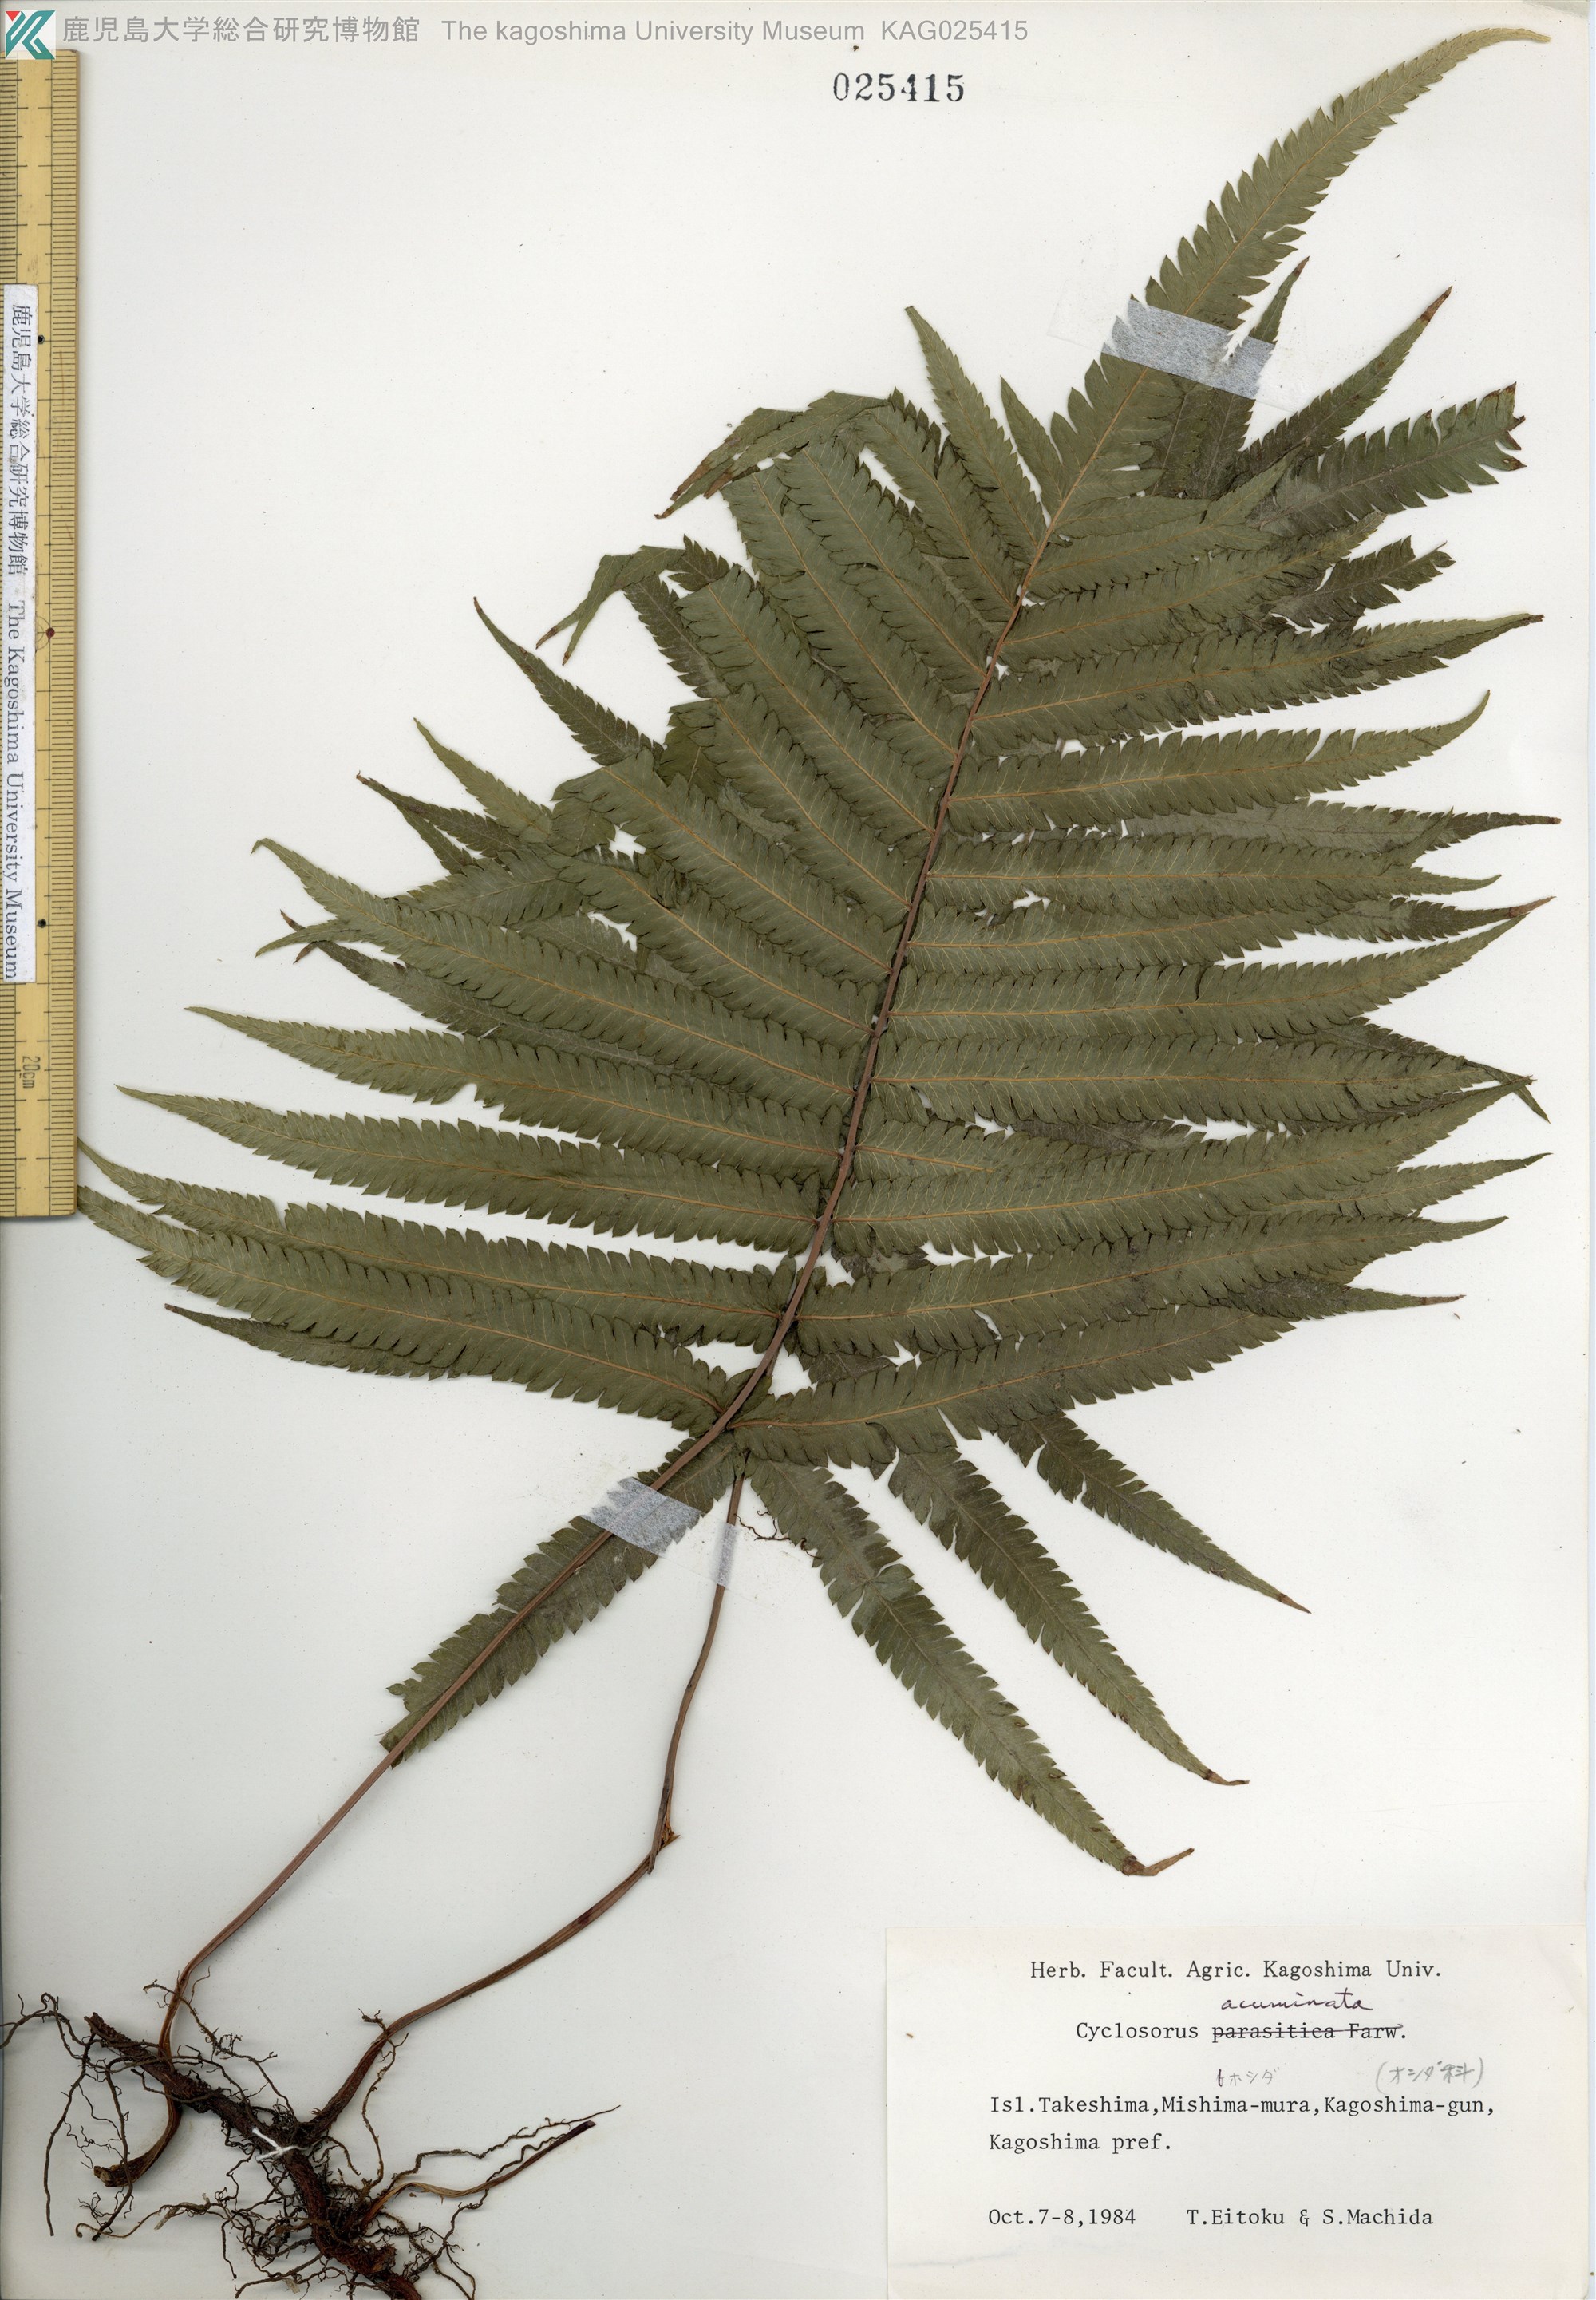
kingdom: Plantae
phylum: Tracheophyta
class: Polypodiopsida
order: Polypodiales
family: Thelypteridaceae
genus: Christella
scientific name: Christella acuminata
